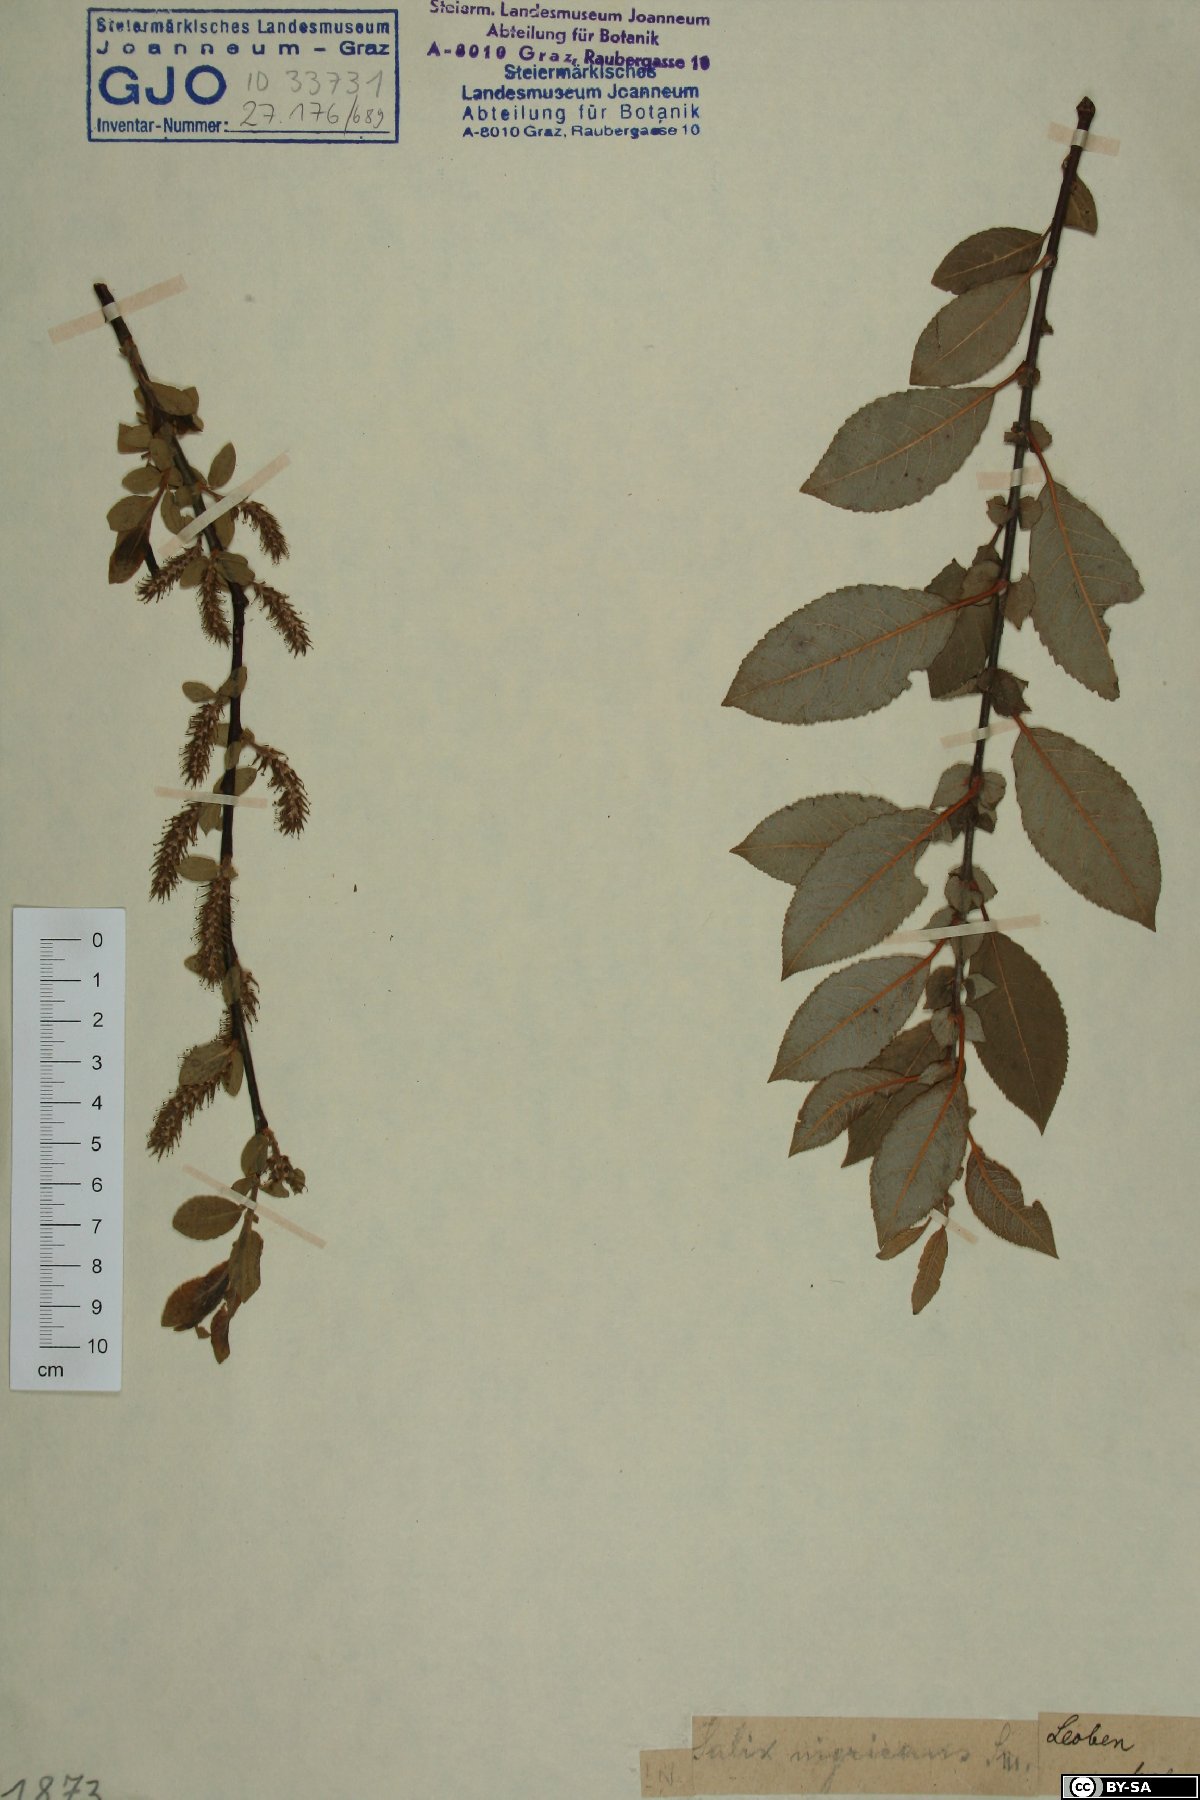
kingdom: Plantae
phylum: Tracheophyta
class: Magnoliopsida
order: Malpighiales
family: Salicaceae
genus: Salix
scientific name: Salix myrsinifolia
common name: Dark-leaved willow
